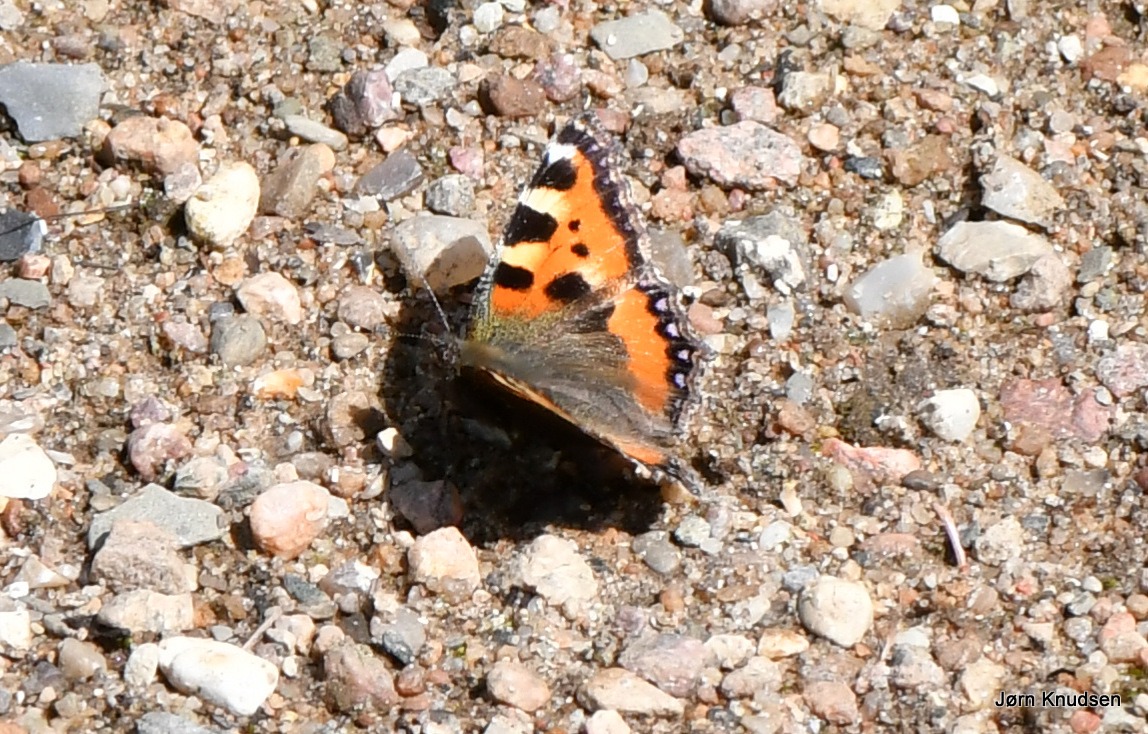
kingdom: Animalia
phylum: Arthropoda
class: Insecta
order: Lepidoptera
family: Nymphalidae
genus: Aglais
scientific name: Aglais urticae
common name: Nældens takvinge
